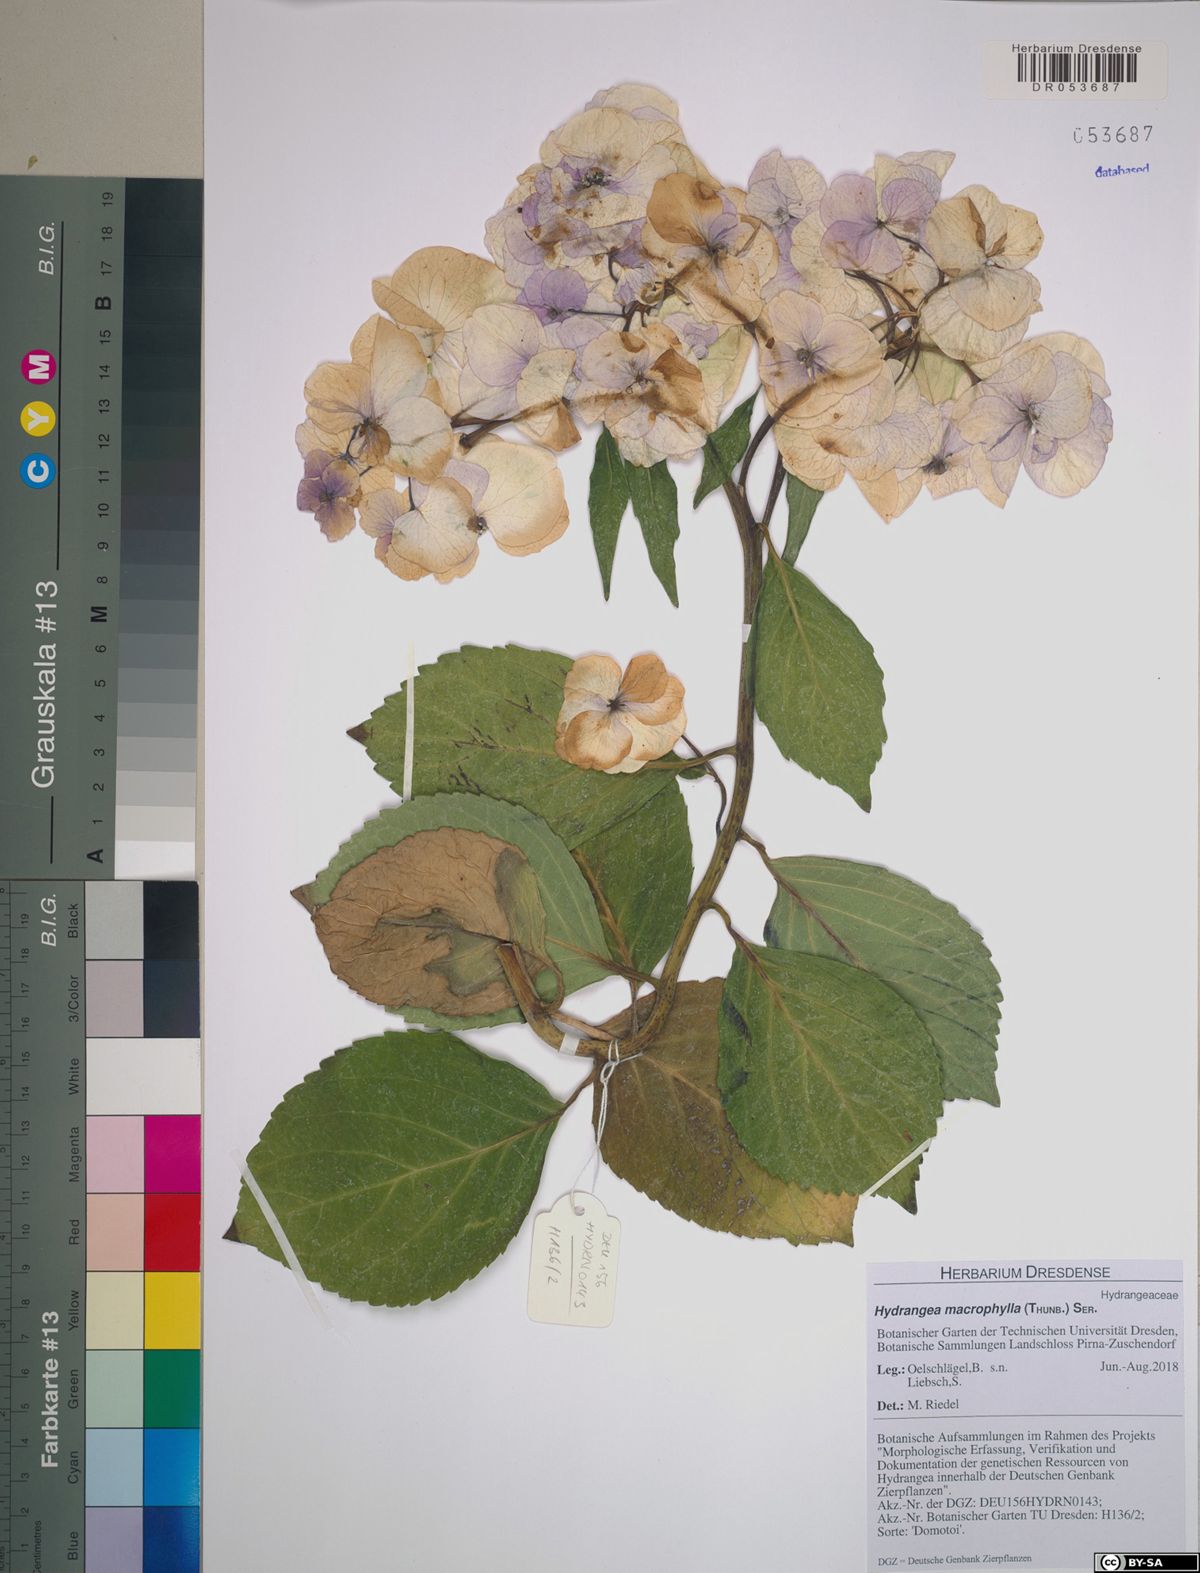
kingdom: Plantae
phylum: Tracheophyta
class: Magnoliopsida
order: Cornales
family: Hydrangeaceae
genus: Hydrangea
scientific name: Hydrangea macrophylla
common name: Hydrangea
